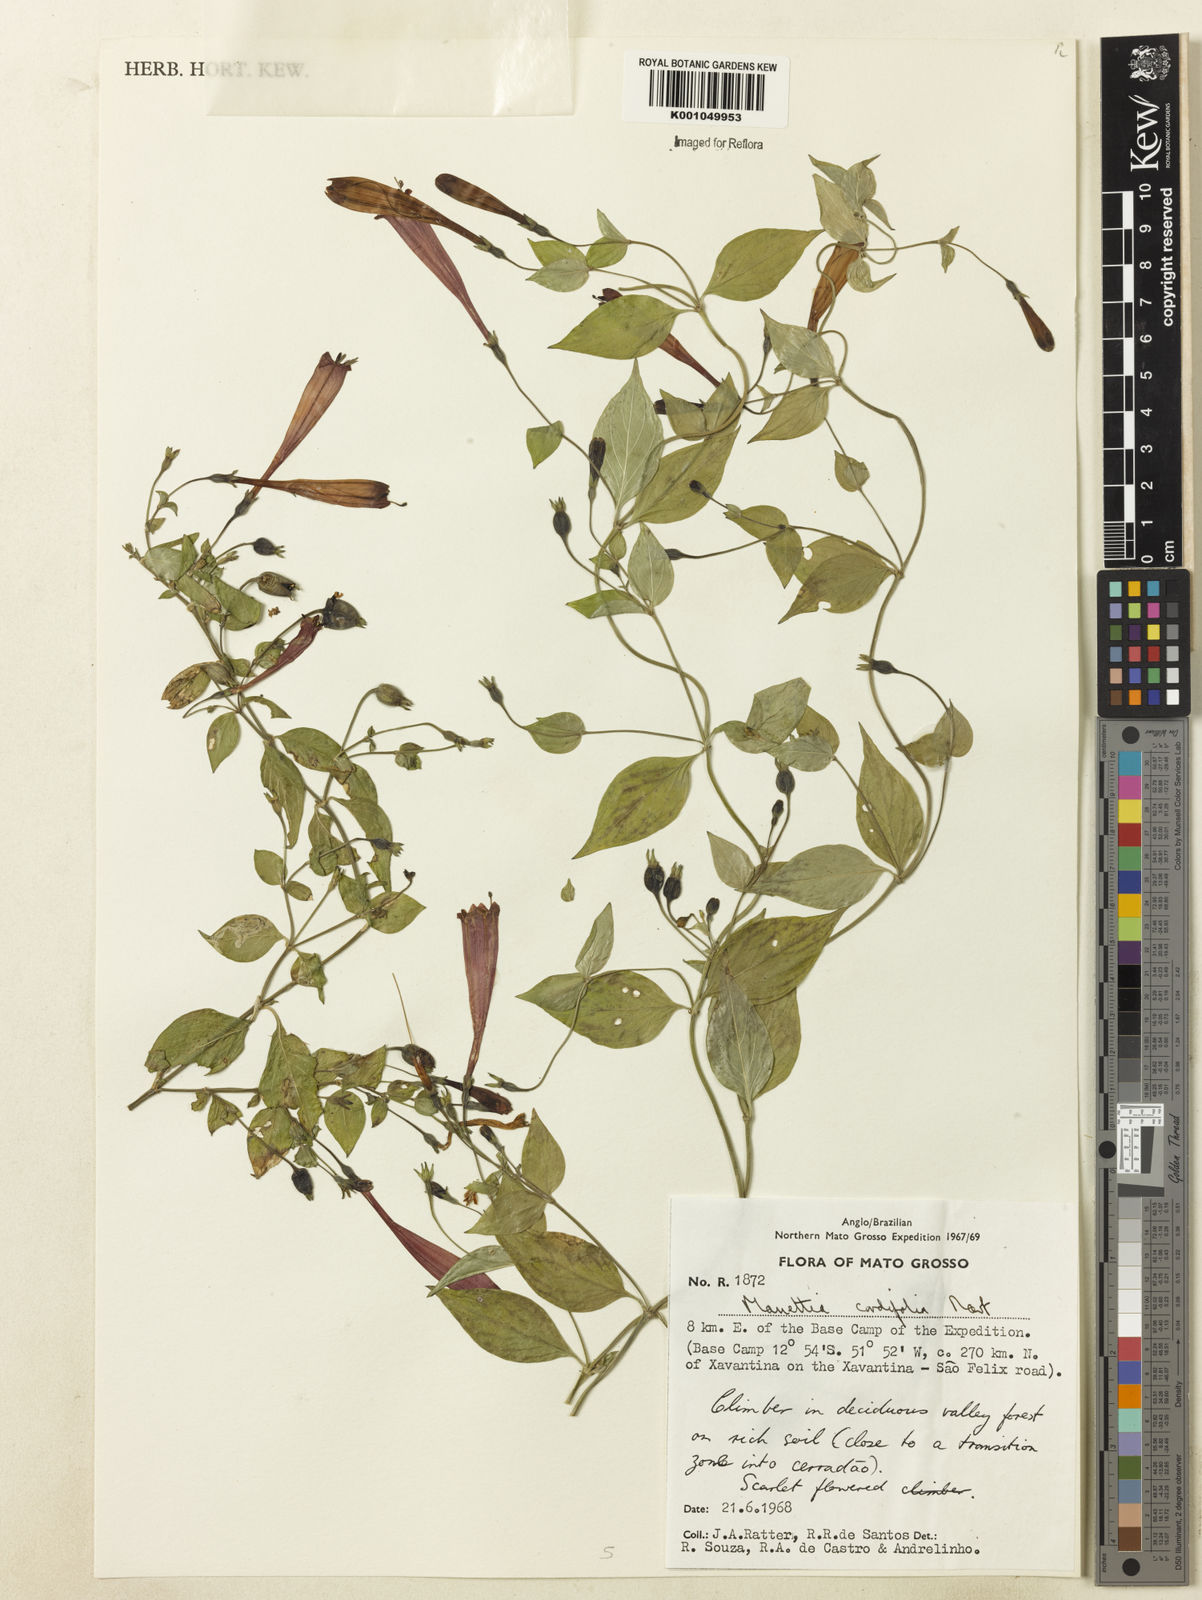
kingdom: Plantae
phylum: Tracheophyta
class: Magnoliopsida
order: Gentianales
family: Rubiaceae
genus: Manettia
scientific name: Manettia cordifolia
